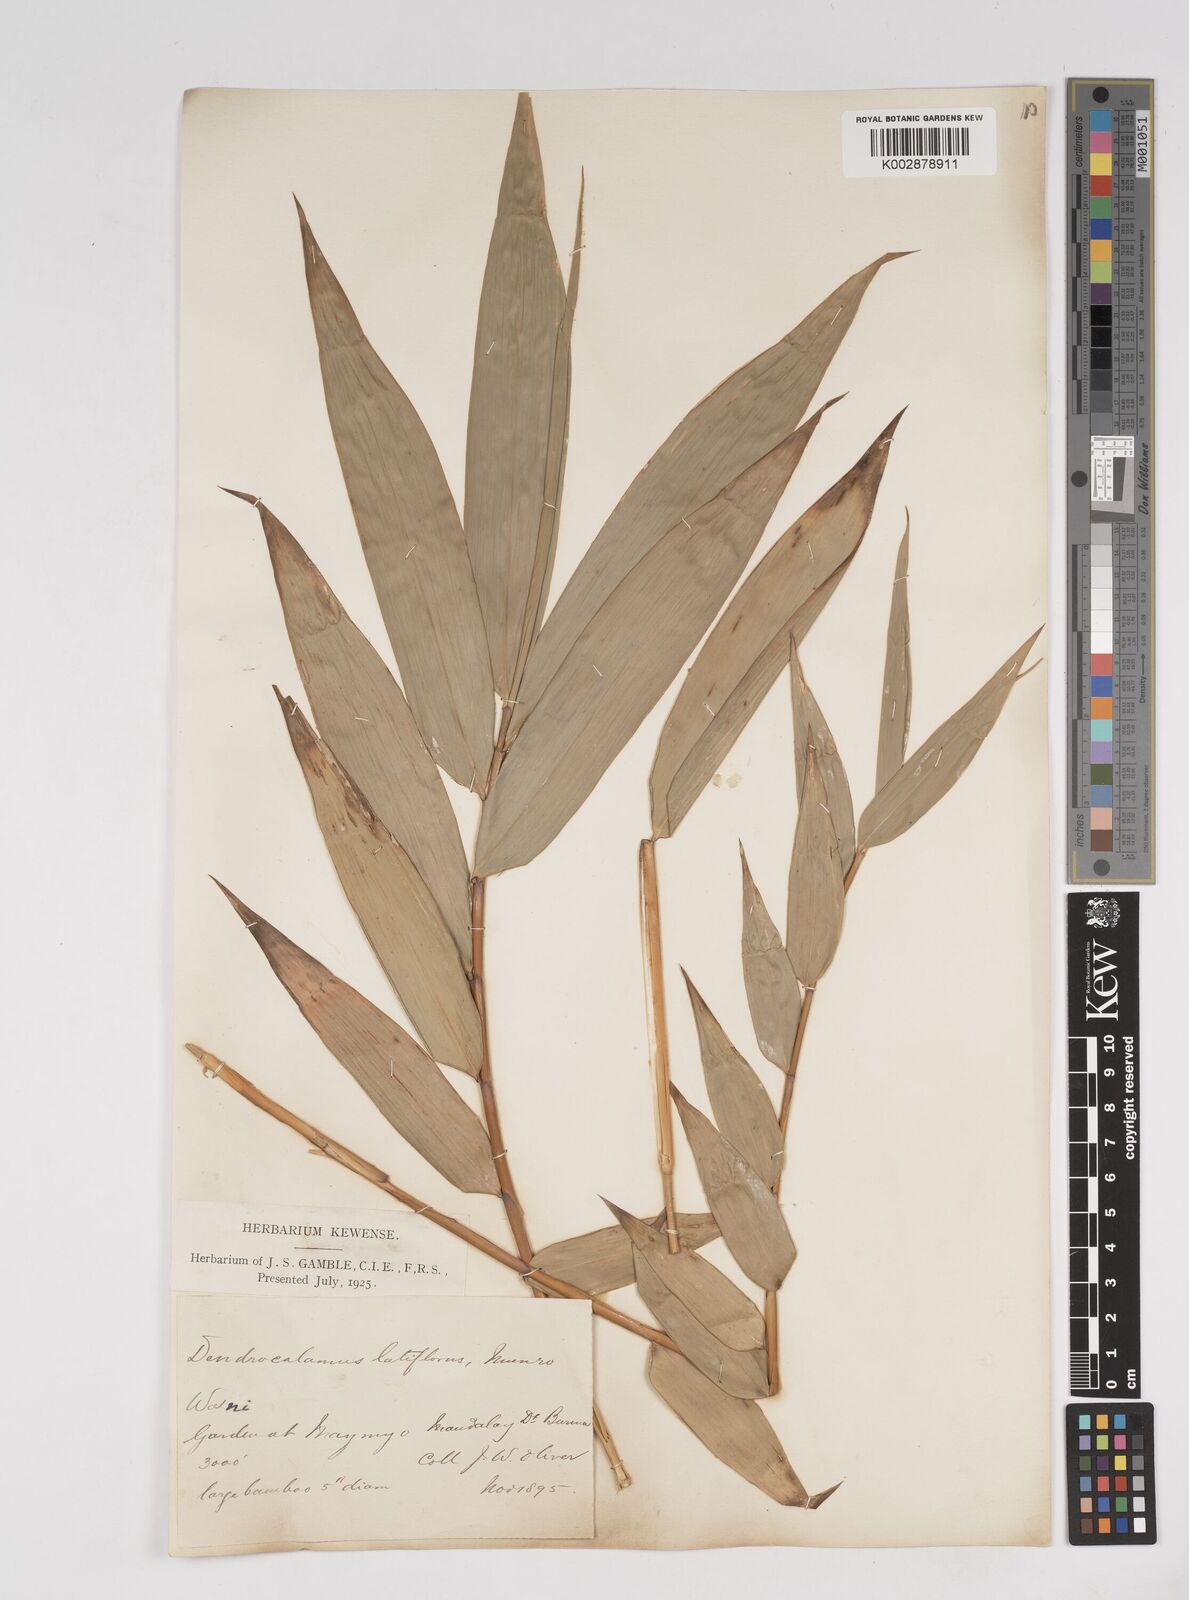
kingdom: Plantae
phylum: Tracheophyta
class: Liliopsida
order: Poales
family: Poaceae
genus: Dendrocalamus
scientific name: Dendrocalamus latiflorus
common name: Giant bamboo
